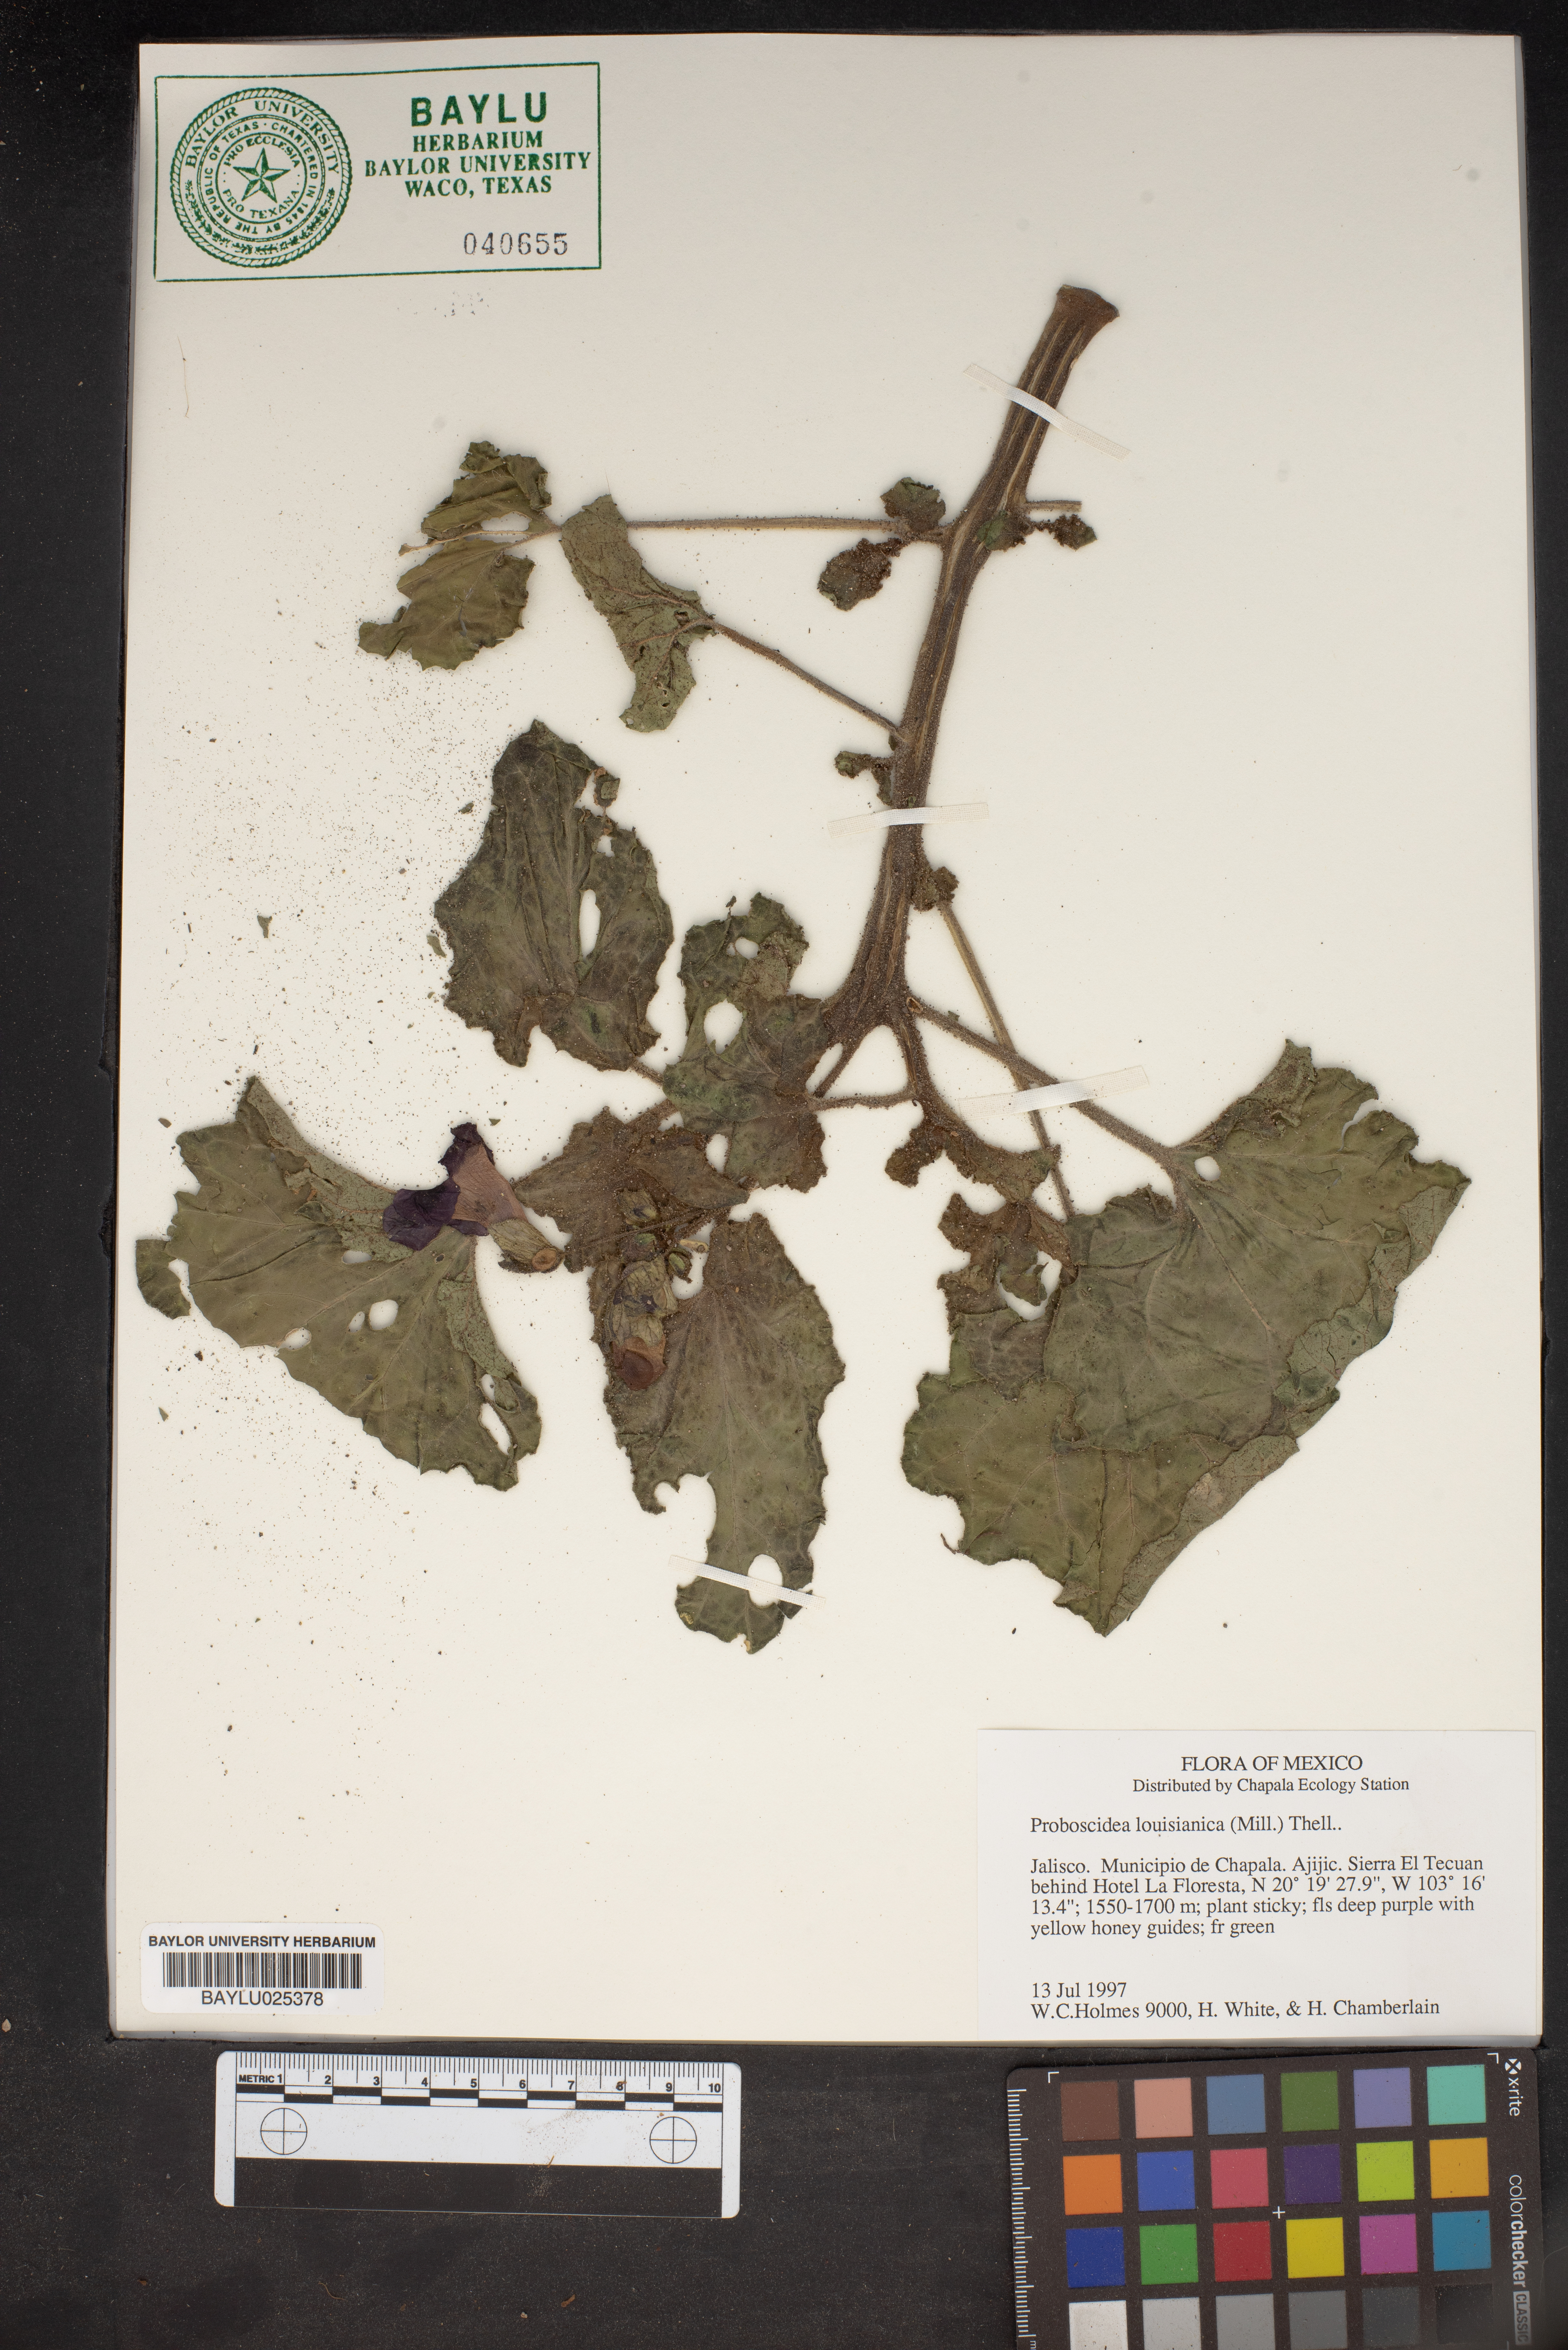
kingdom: Plantae
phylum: Tracheophyta
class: Magnoliopsida
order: Lamiales
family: Martyniaceae
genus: Proboscidea
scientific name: Proboscidea louisianica
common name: Elephant tusks
